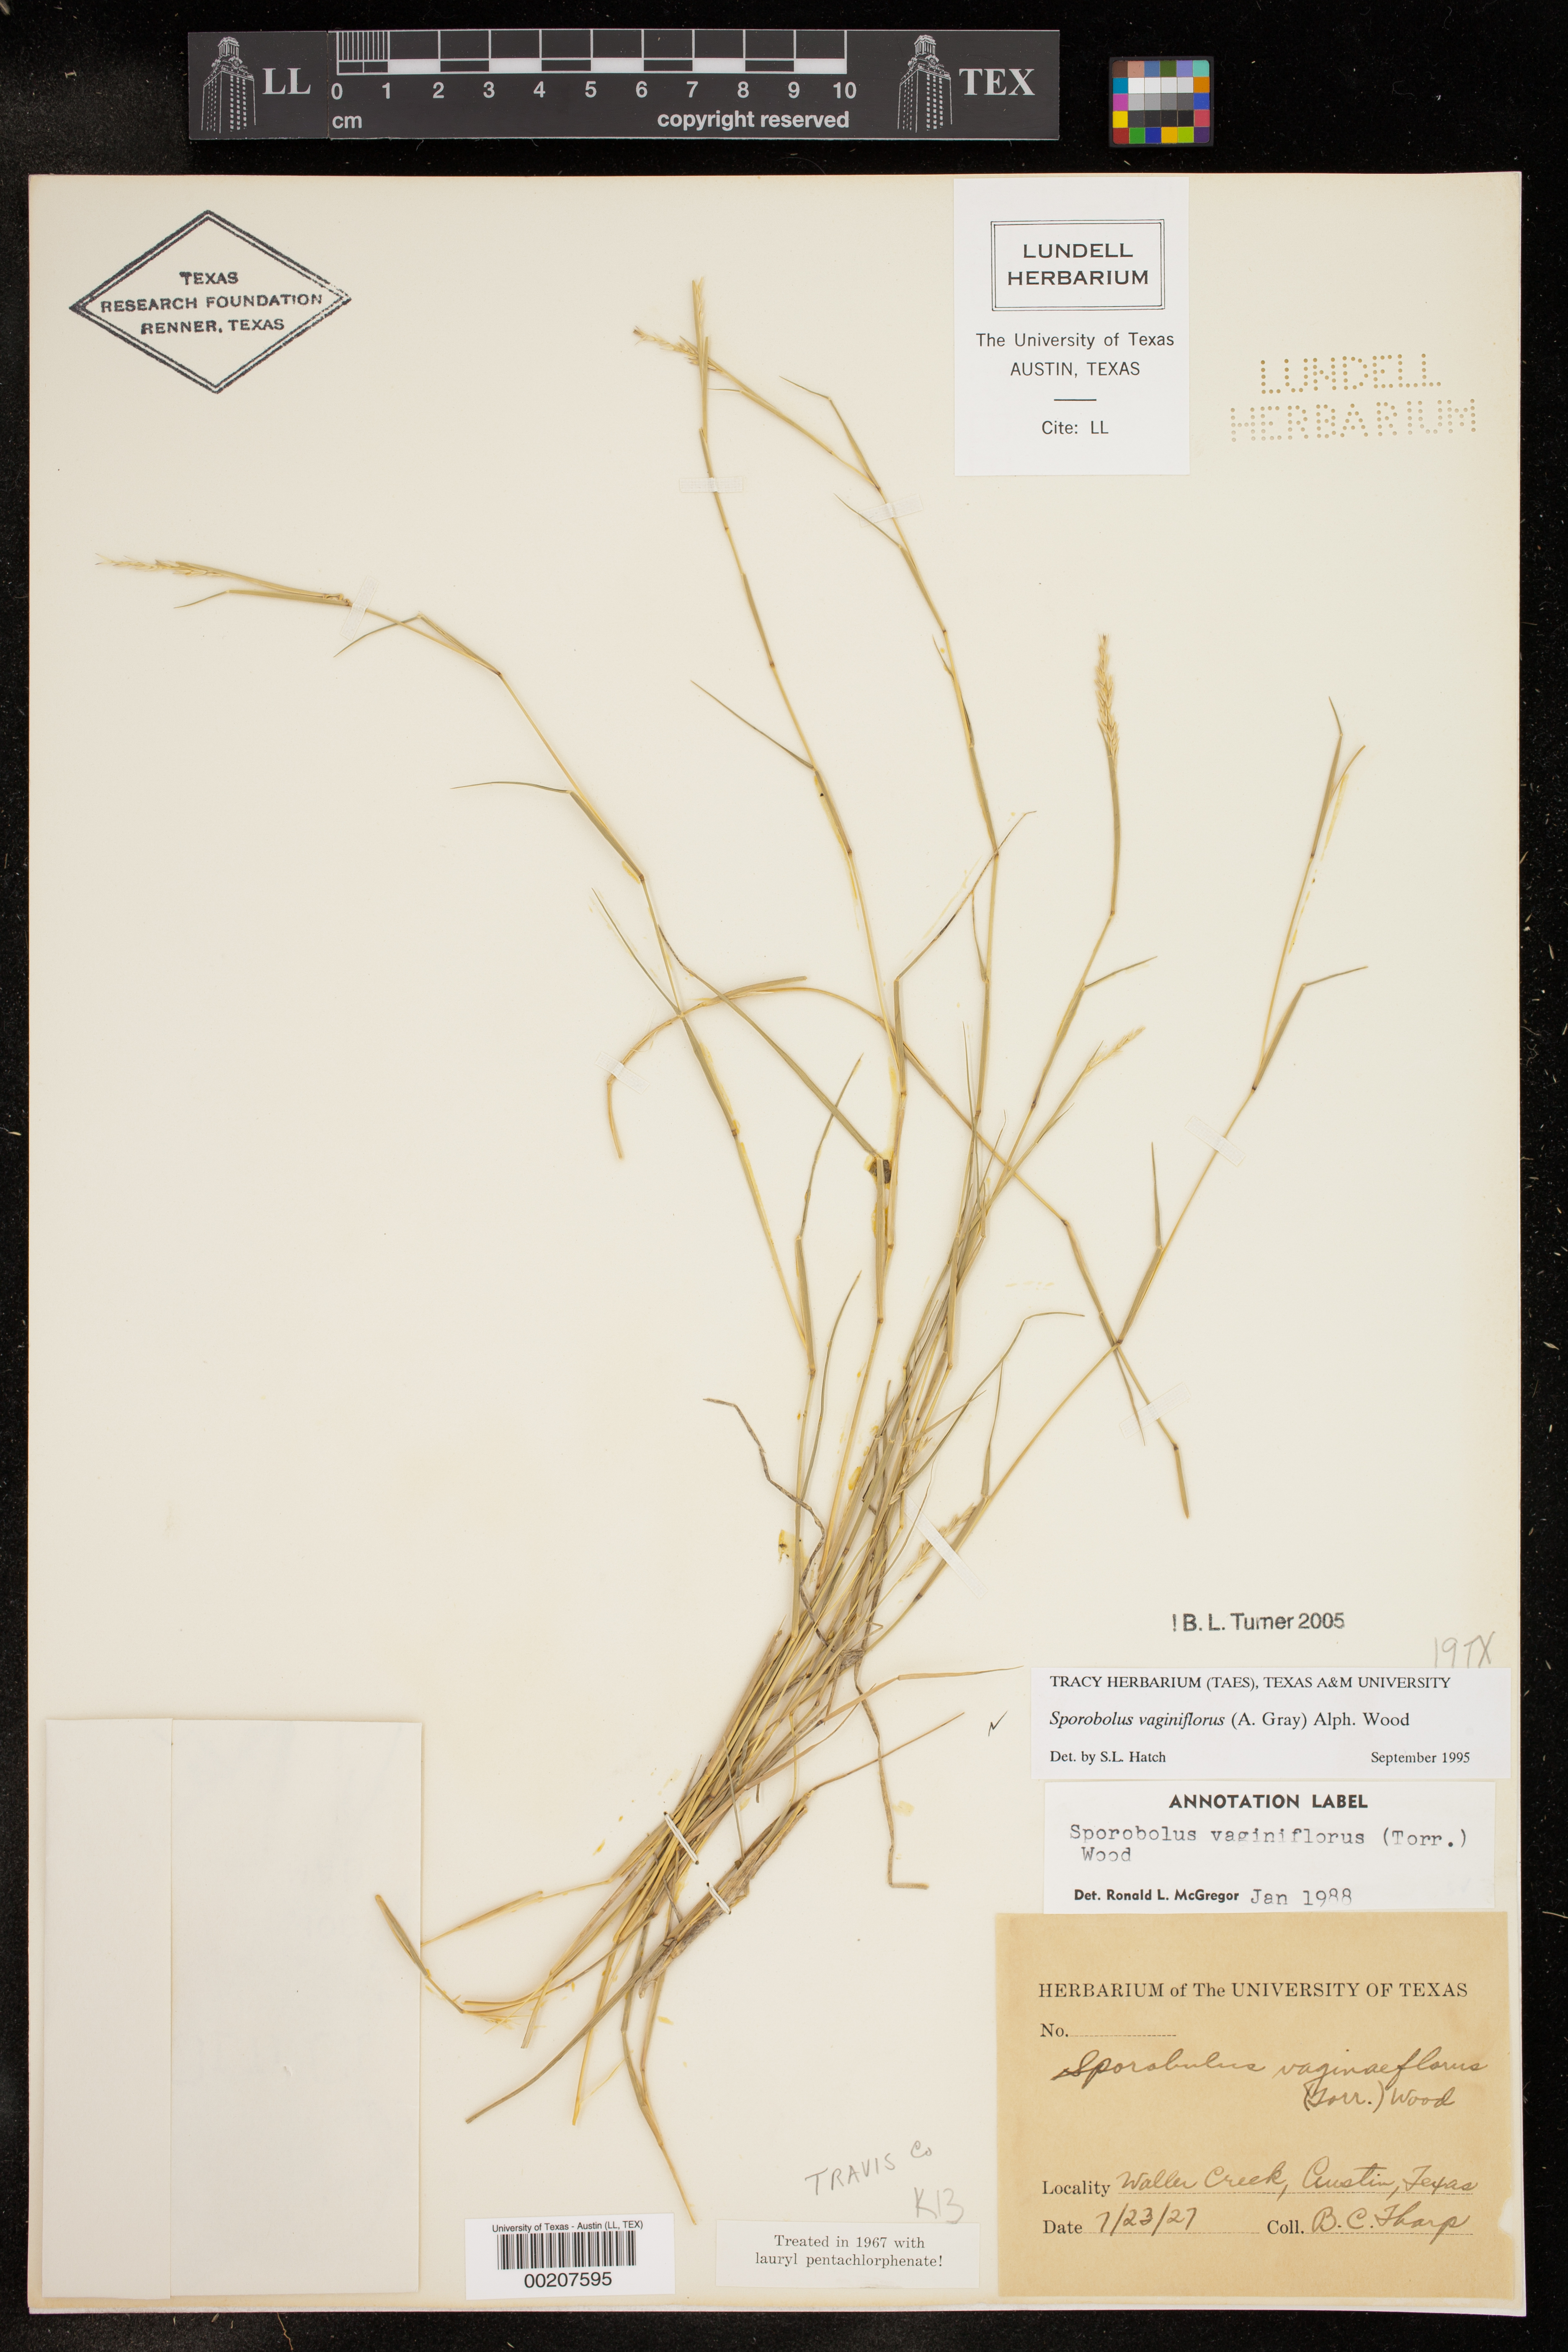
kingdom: Plantae
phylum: Tracheophyta
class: Liliopsida
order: Poales
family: Poaceae
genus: Sporobolus
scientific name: Sporobolus vaginiflorus
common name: Poverty dropseed
